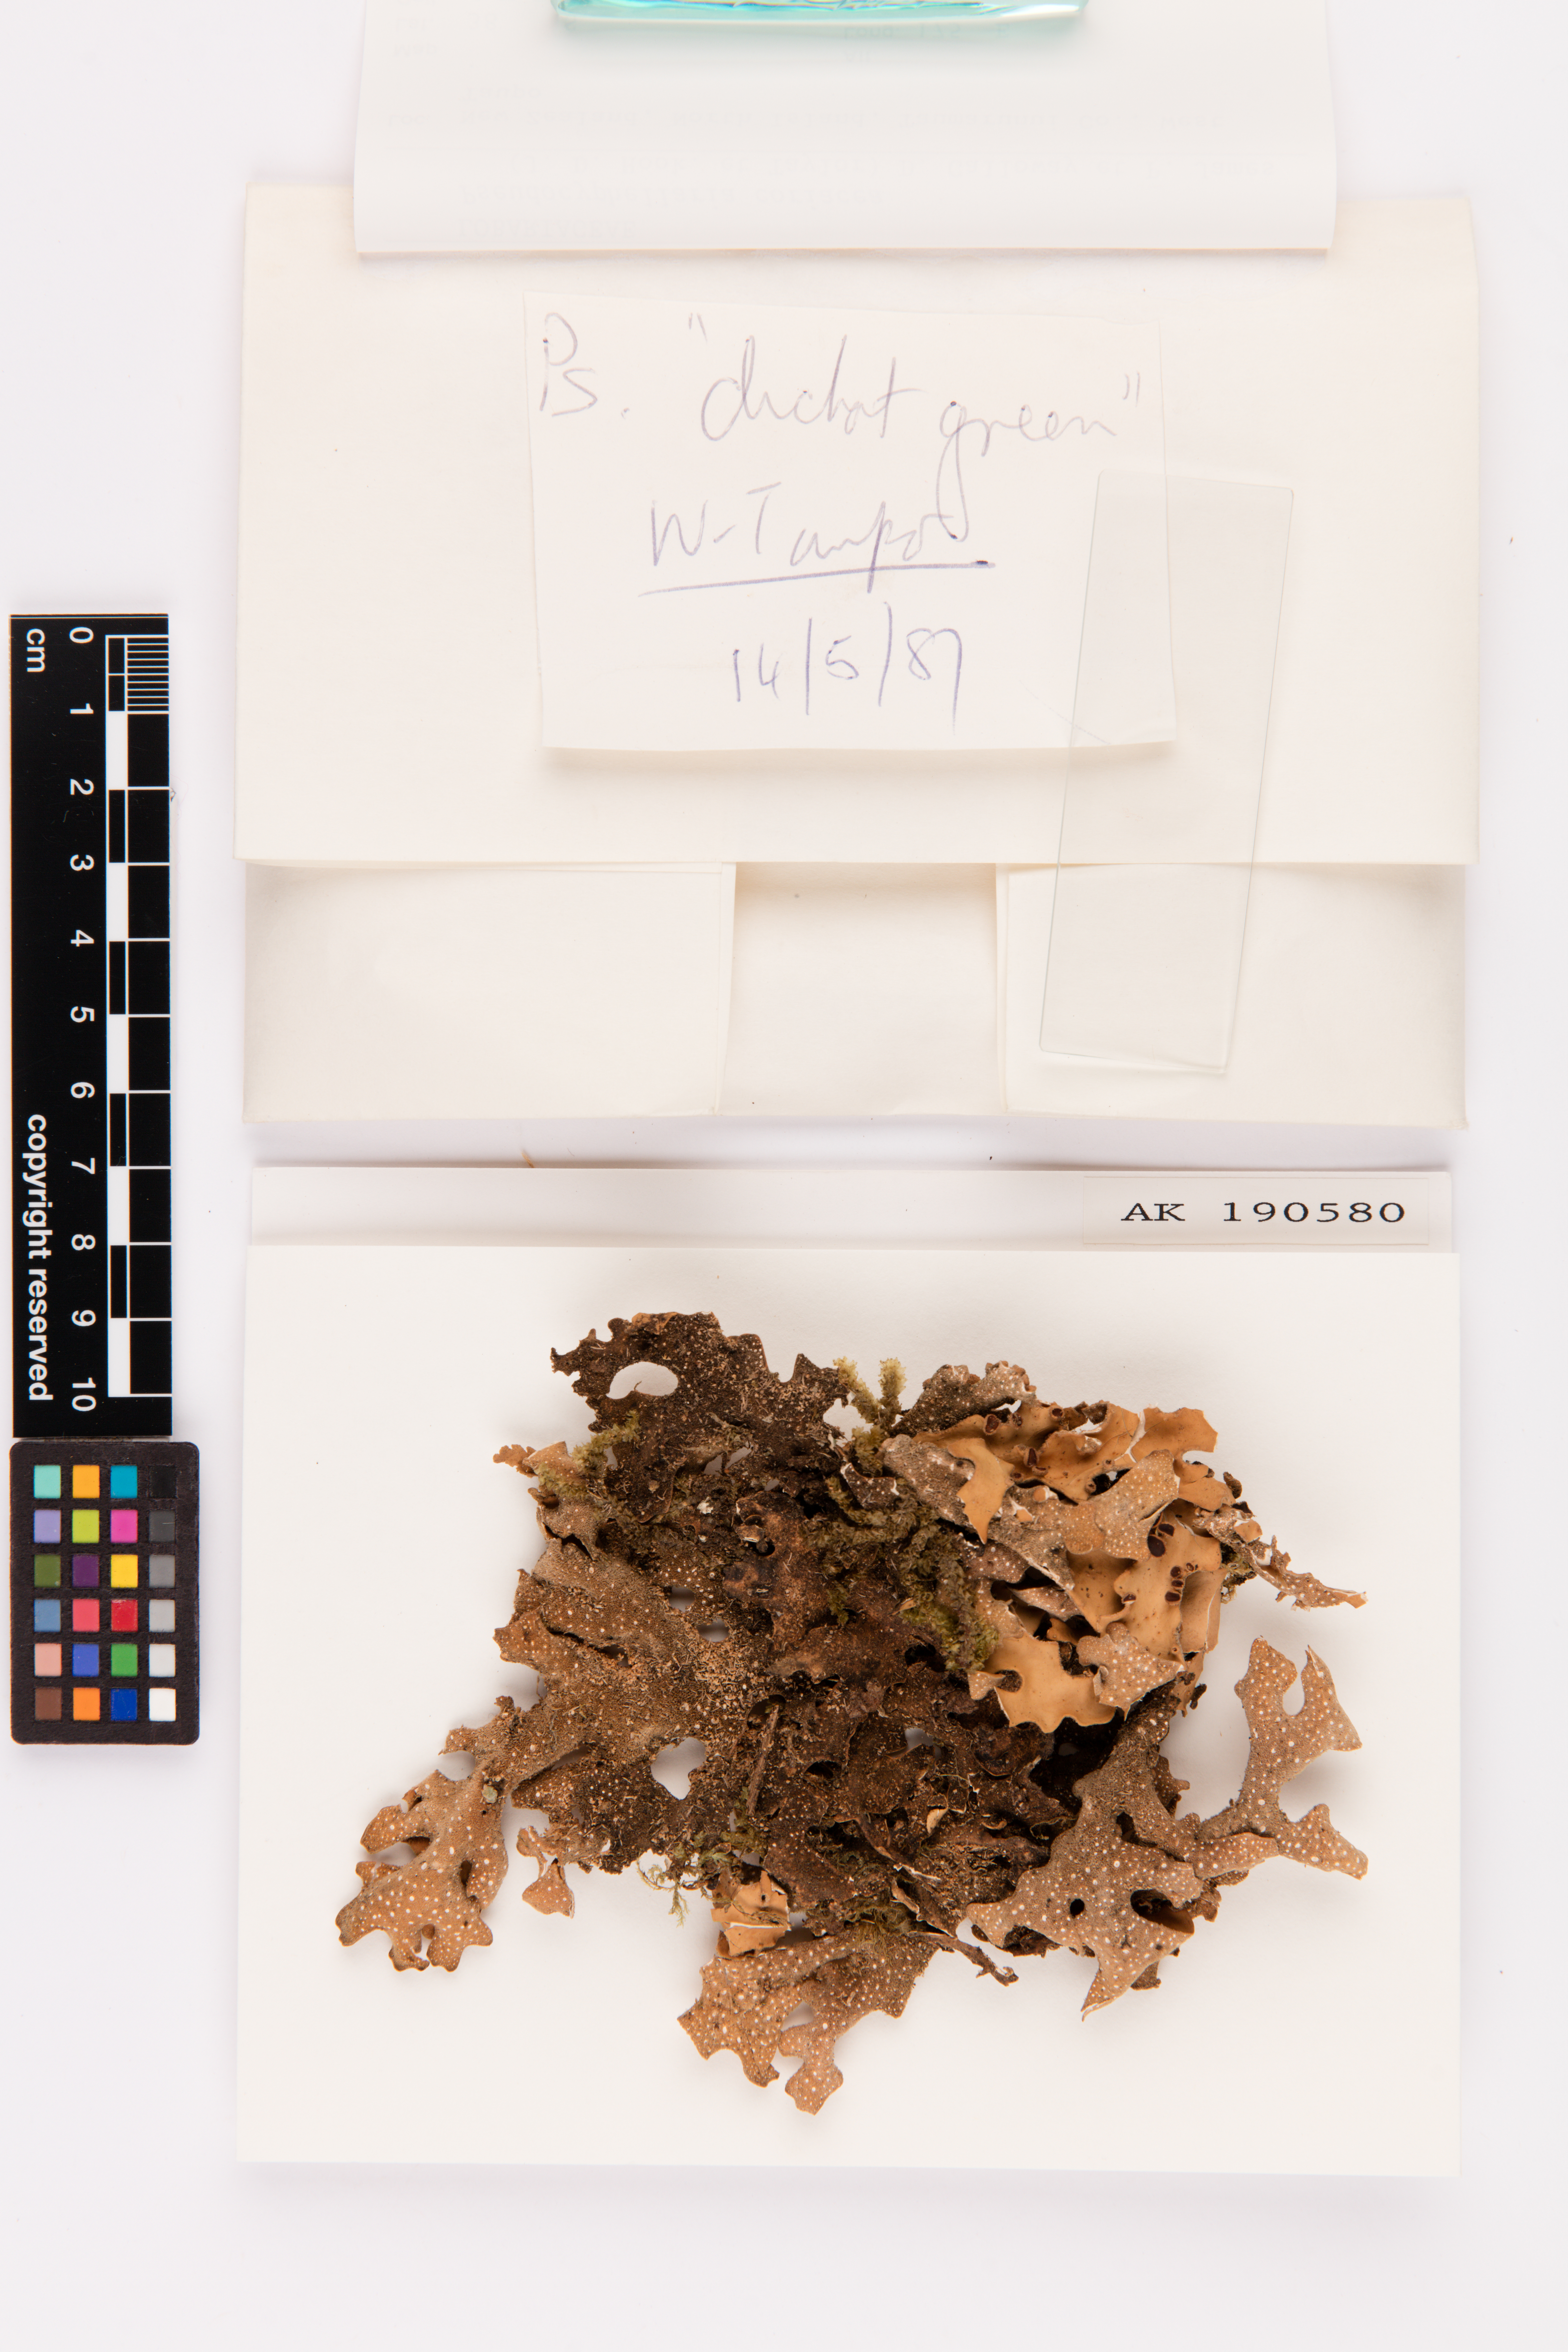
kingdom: Fungi
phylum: Ascomycota
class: Lecanoromycetes
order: Peltigerales
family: Lobariaceae
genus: Pseudocyphellaria
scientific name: Pseudocyphellaria coriacea
